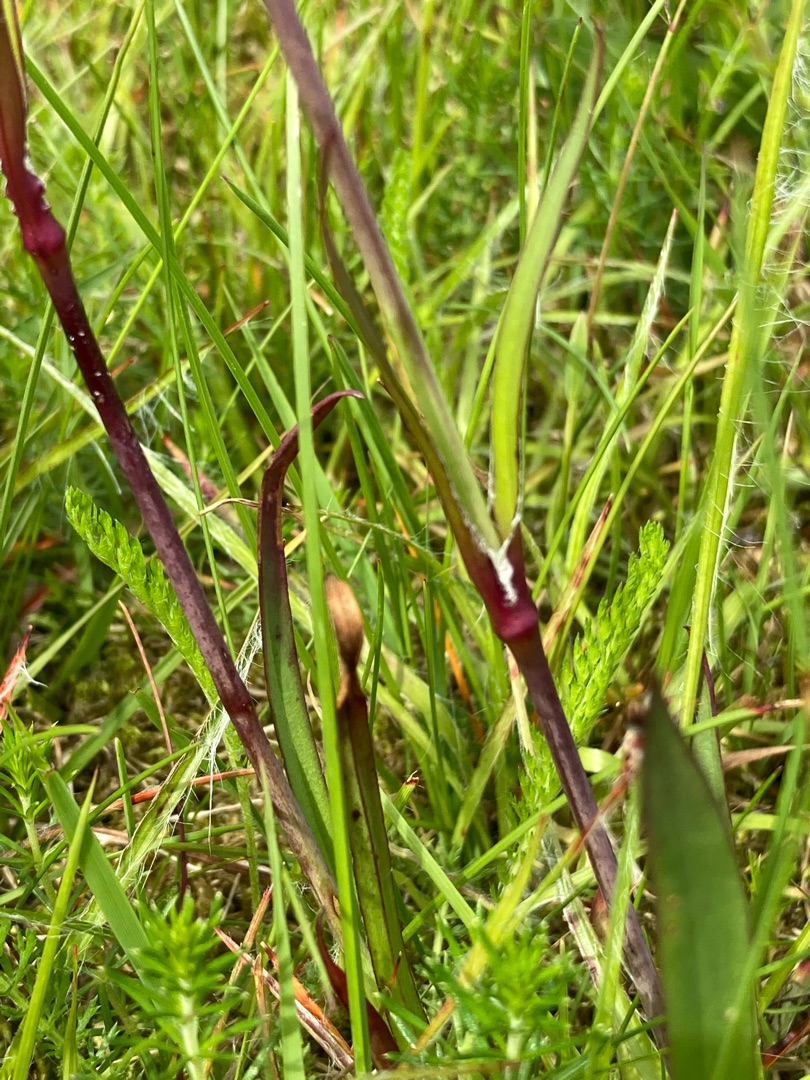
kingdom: Plantae
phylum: Tracheophyta
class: Magnoliopsida
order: Caryophyllales
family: Caryophyllaceae
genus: Viscaria
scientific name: Viscaria vulgaris
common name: Tjærenellike
